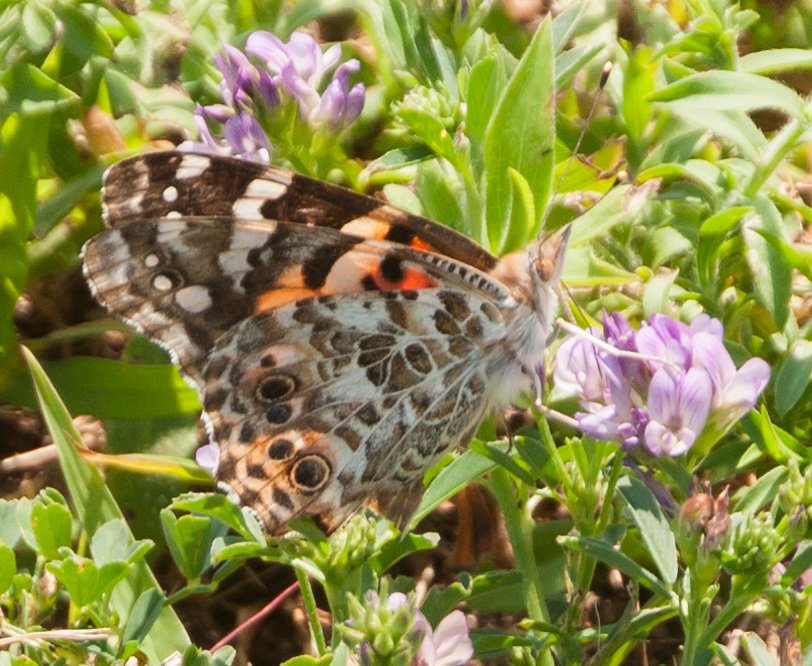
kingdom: Animalia
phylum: Arthropoda
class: Insecta
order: Lepidoptera
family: Nymphalidae
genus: Vanessa
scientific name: Vanessa cardui
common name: Painted Lady
